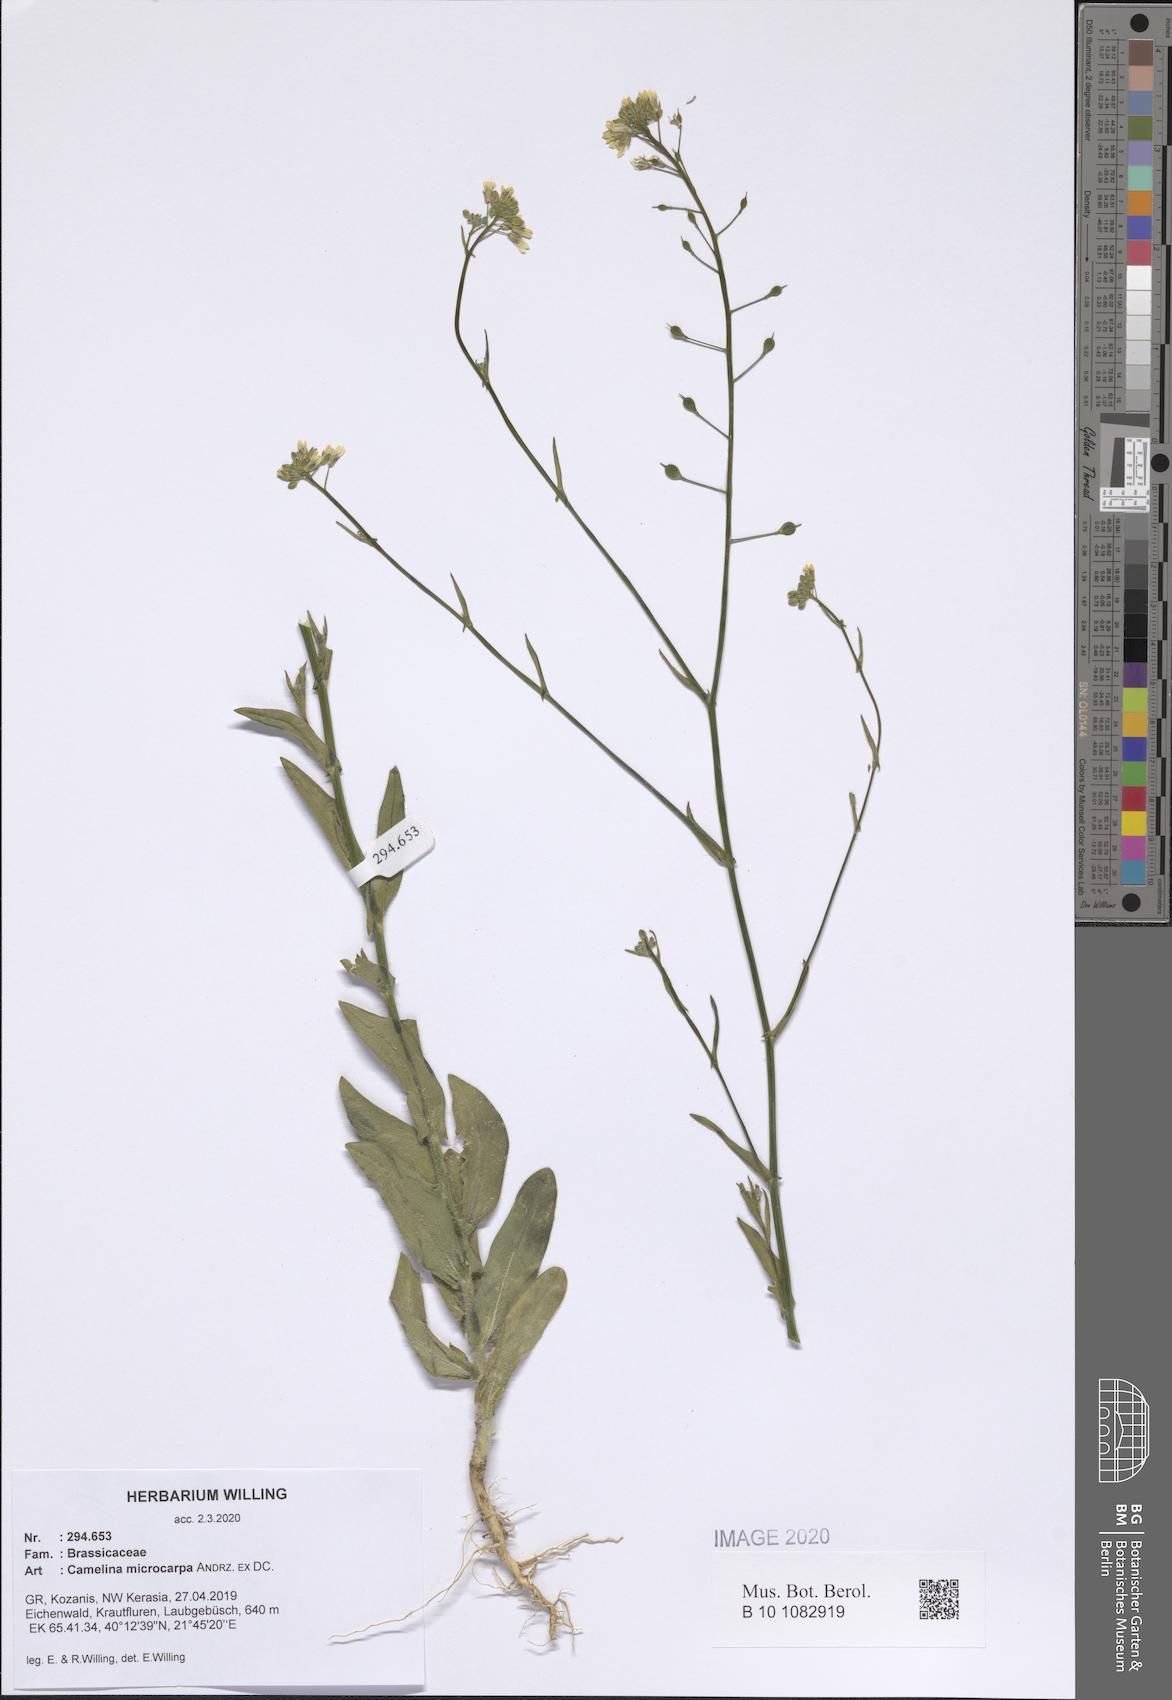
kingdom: Plantae
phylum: Tracheophyta
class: Magnoliopsida
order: Brassicales
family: Brassicaceae
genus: Camelina
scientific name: Camelina microcarpa
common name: Lesser gold-of-pleasure
